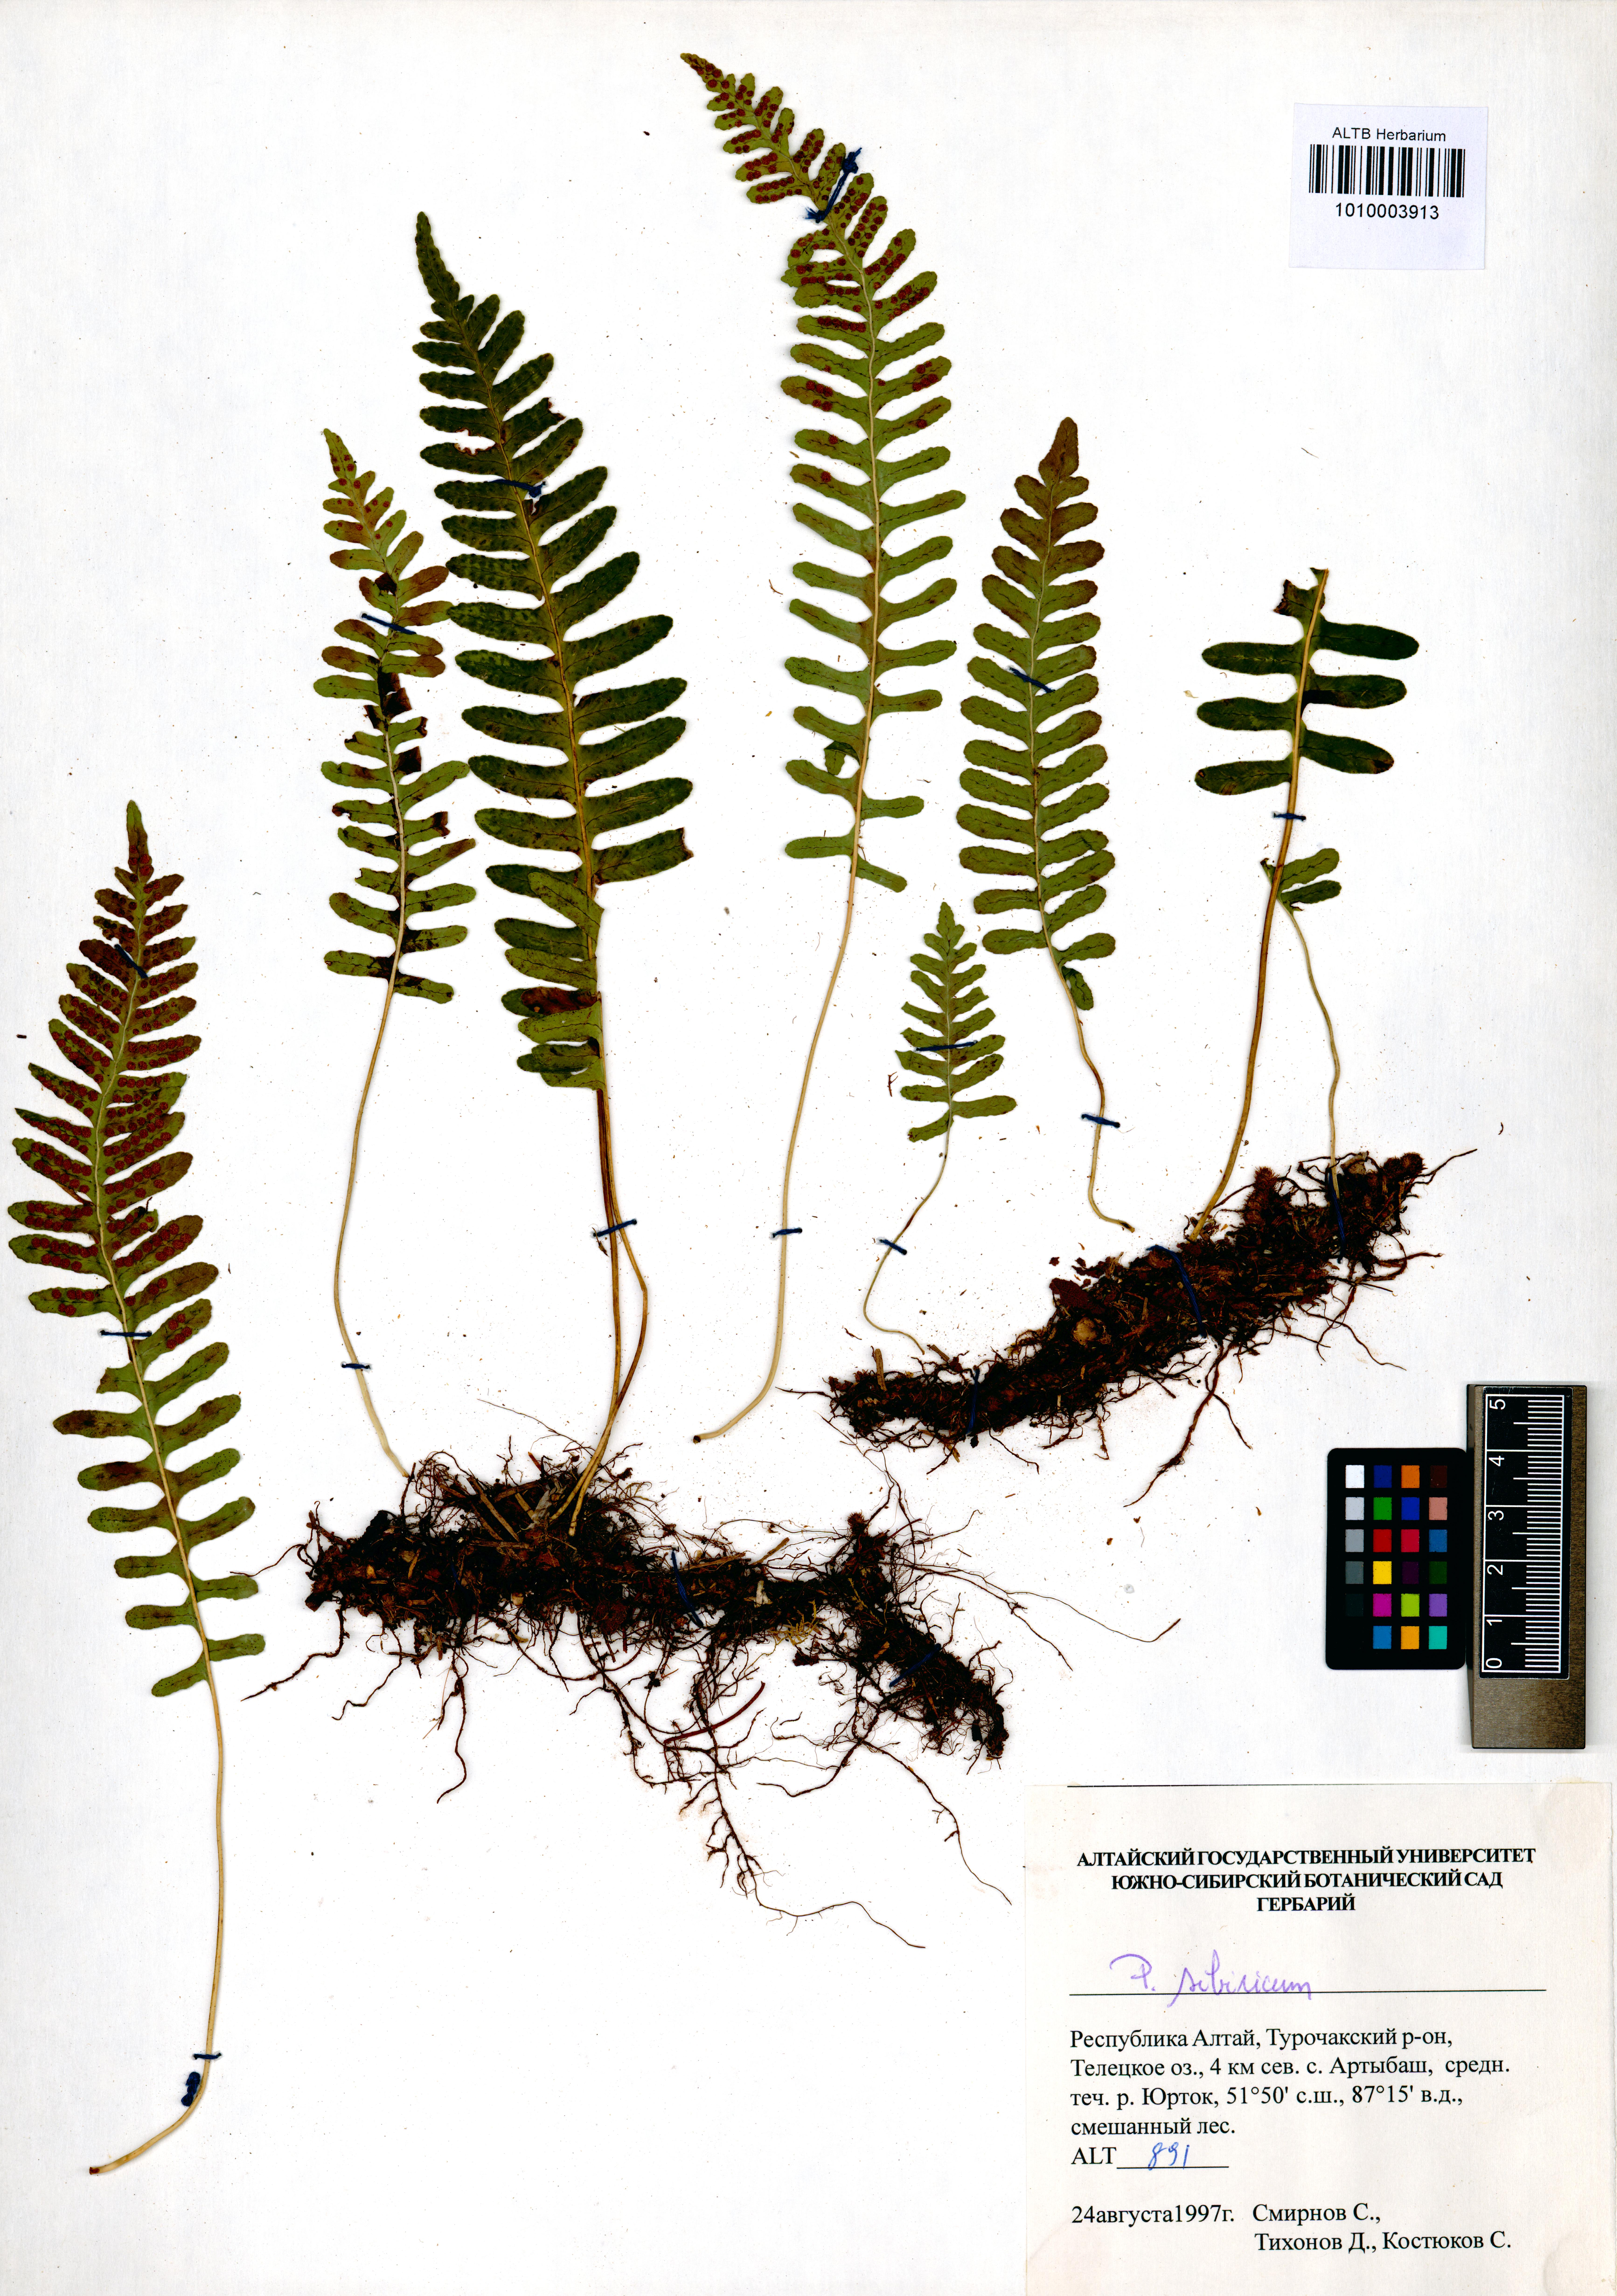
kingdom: Plantae
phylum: Tracheophyta
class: Polypodiopsida
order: Polypodiales
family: Polypodiaceae
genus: Polypodium
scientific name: Polypodium sibiricum
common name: Siberian polypody
